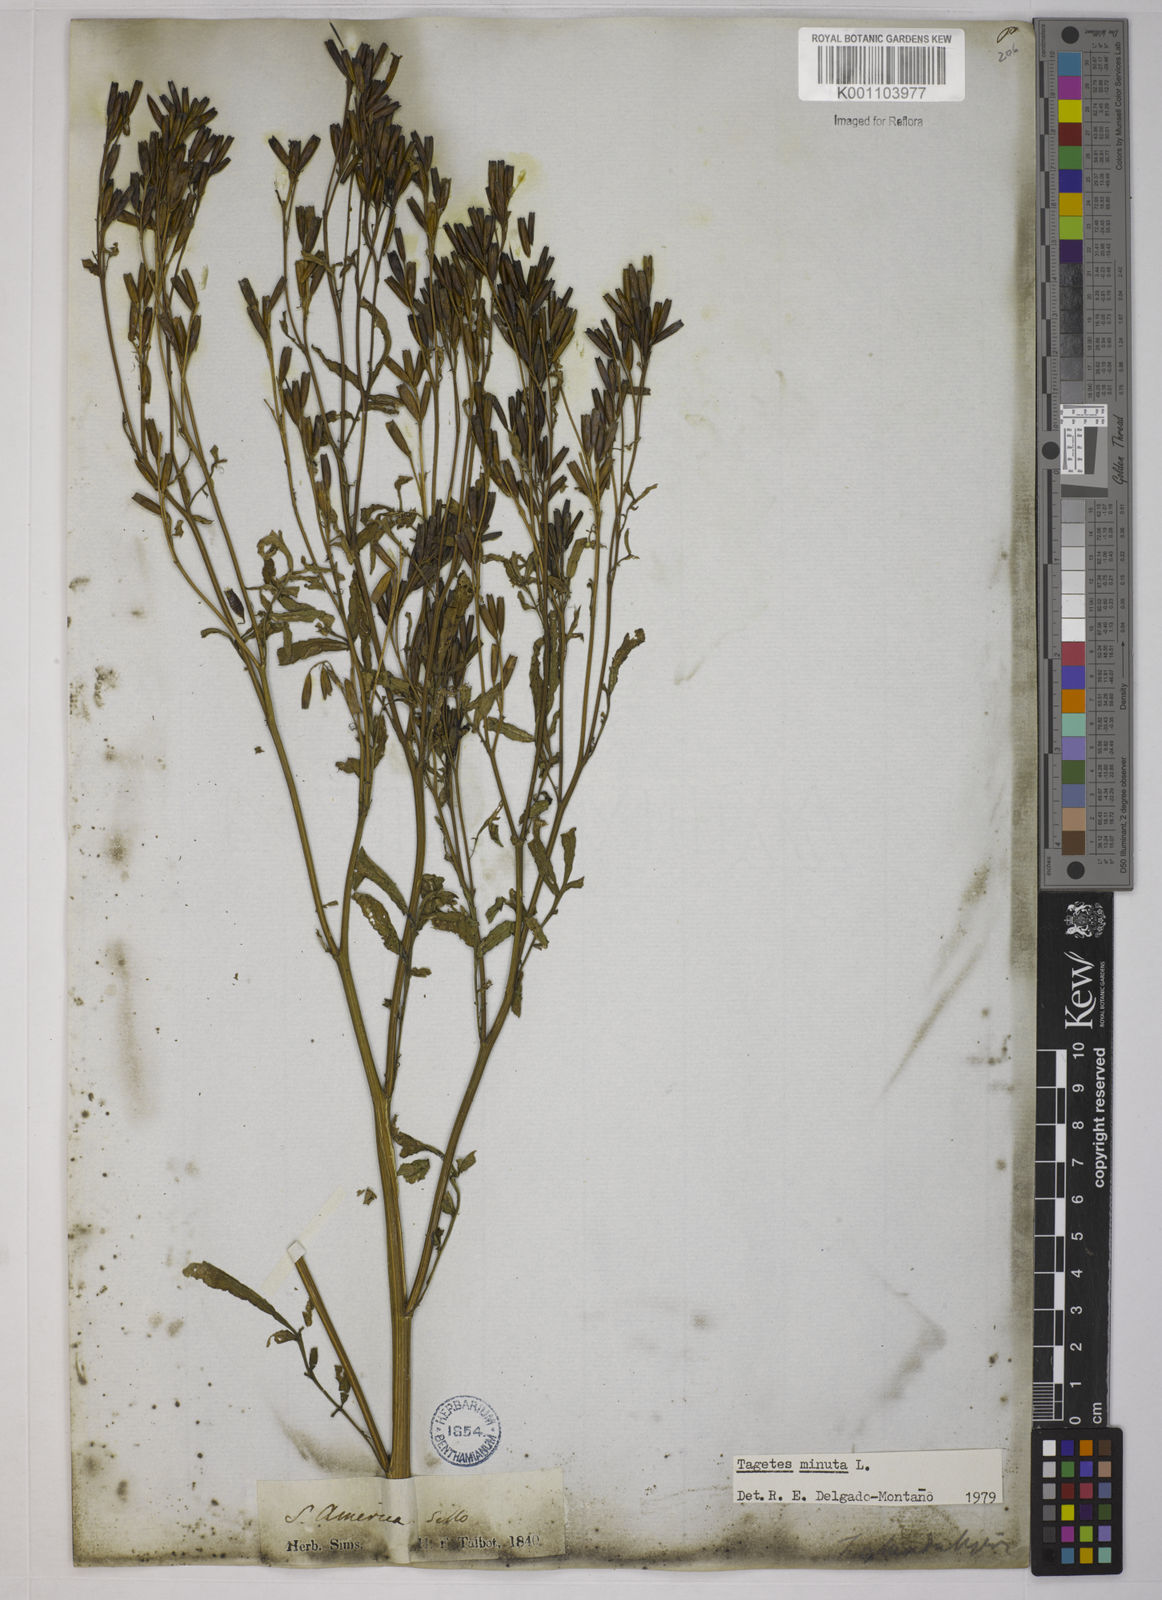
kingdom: Plantae
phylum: Tracheophyta
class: Magnoliopsida
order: Asterales
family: Asteraceae
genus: Tagetes
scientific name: Tagetes minuta
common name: Muster john henry
